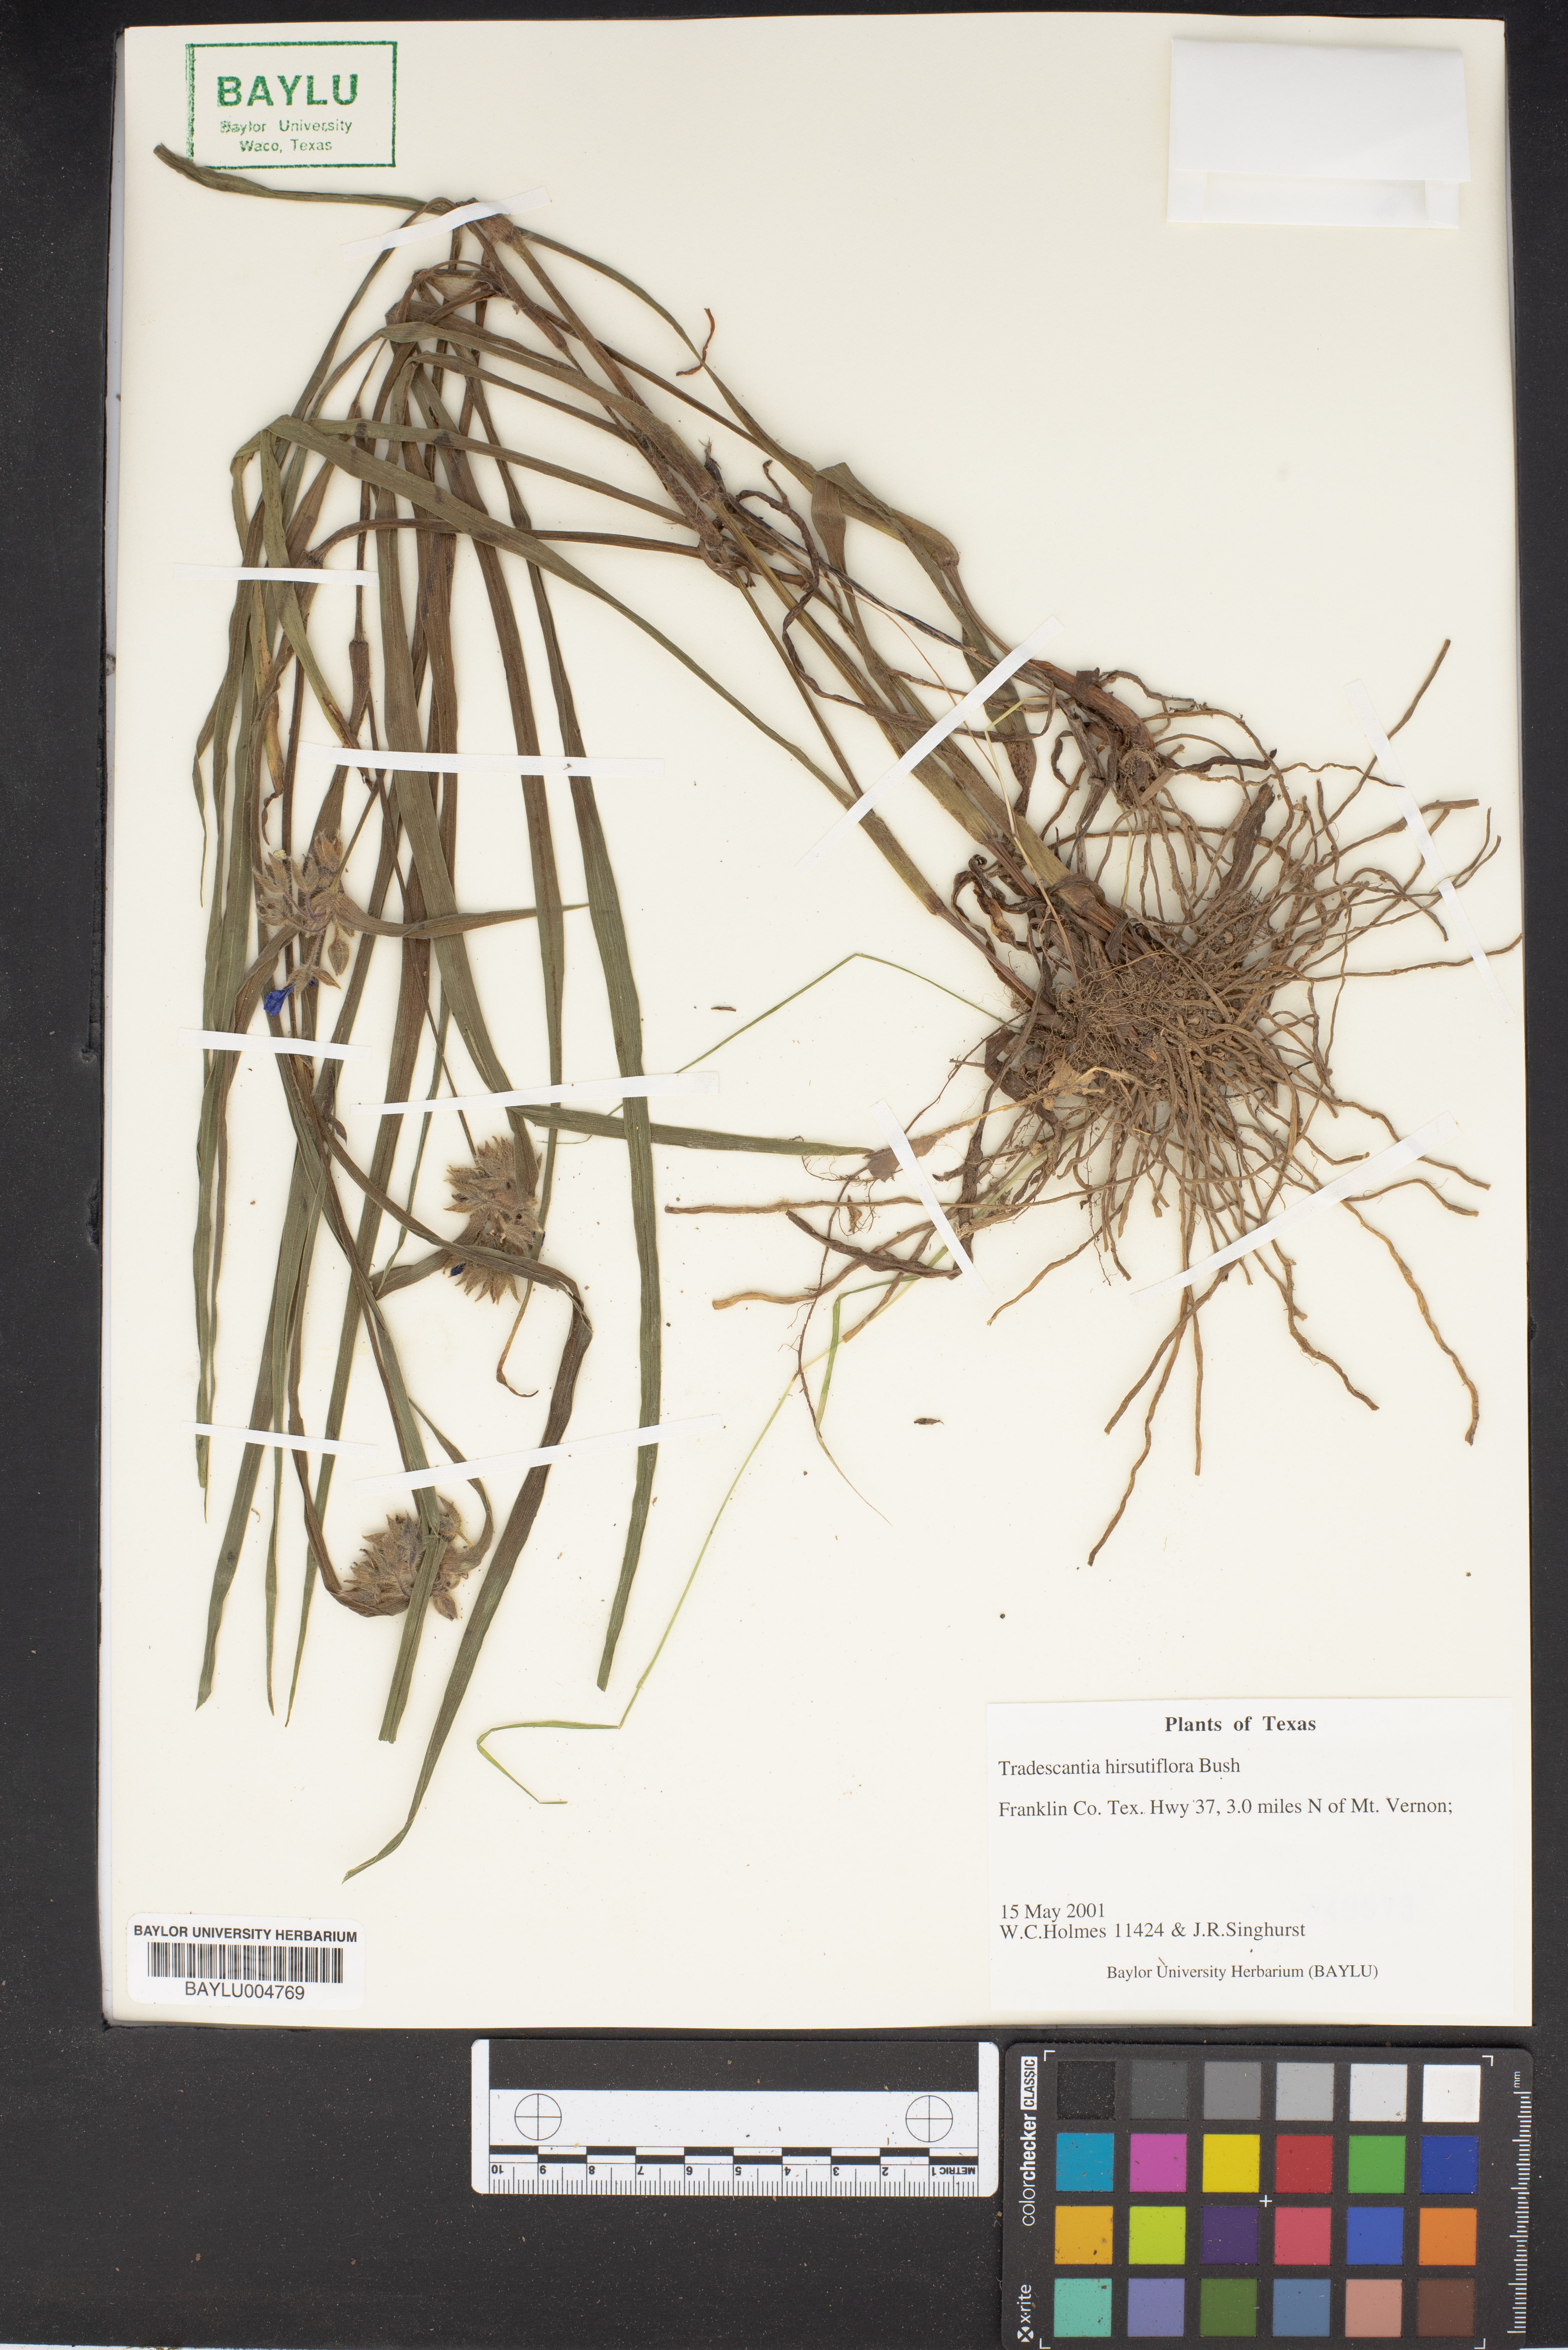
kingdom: Plantae
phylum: Tracheophyta
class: Liliopsida
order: Commelinales
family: Commelinaceae
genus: Tradescantia
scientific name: Tradescantia hirsutiflora
